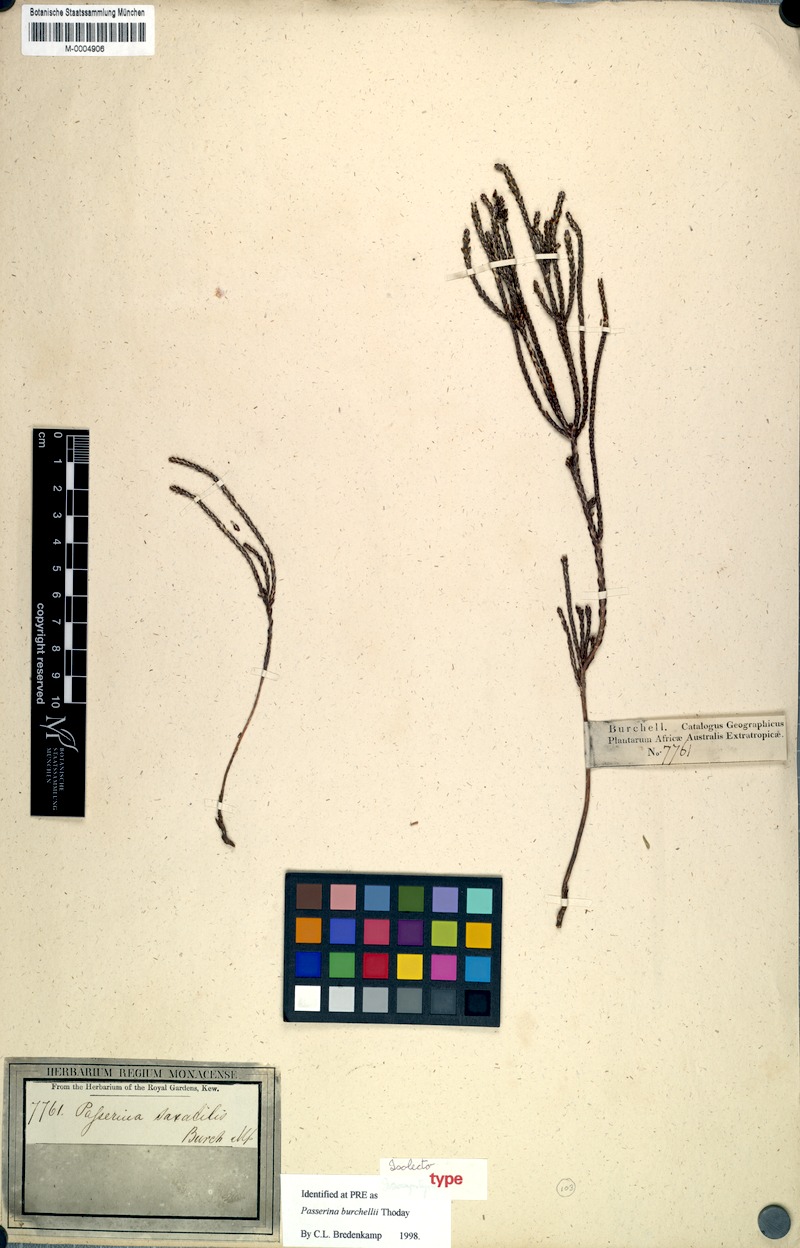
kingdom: Plantae
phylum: Tracheophyta
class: Magnoliopsida
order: Malvales
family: Thymelaeaceae
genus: Passerina
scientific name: Passerina burchellii
